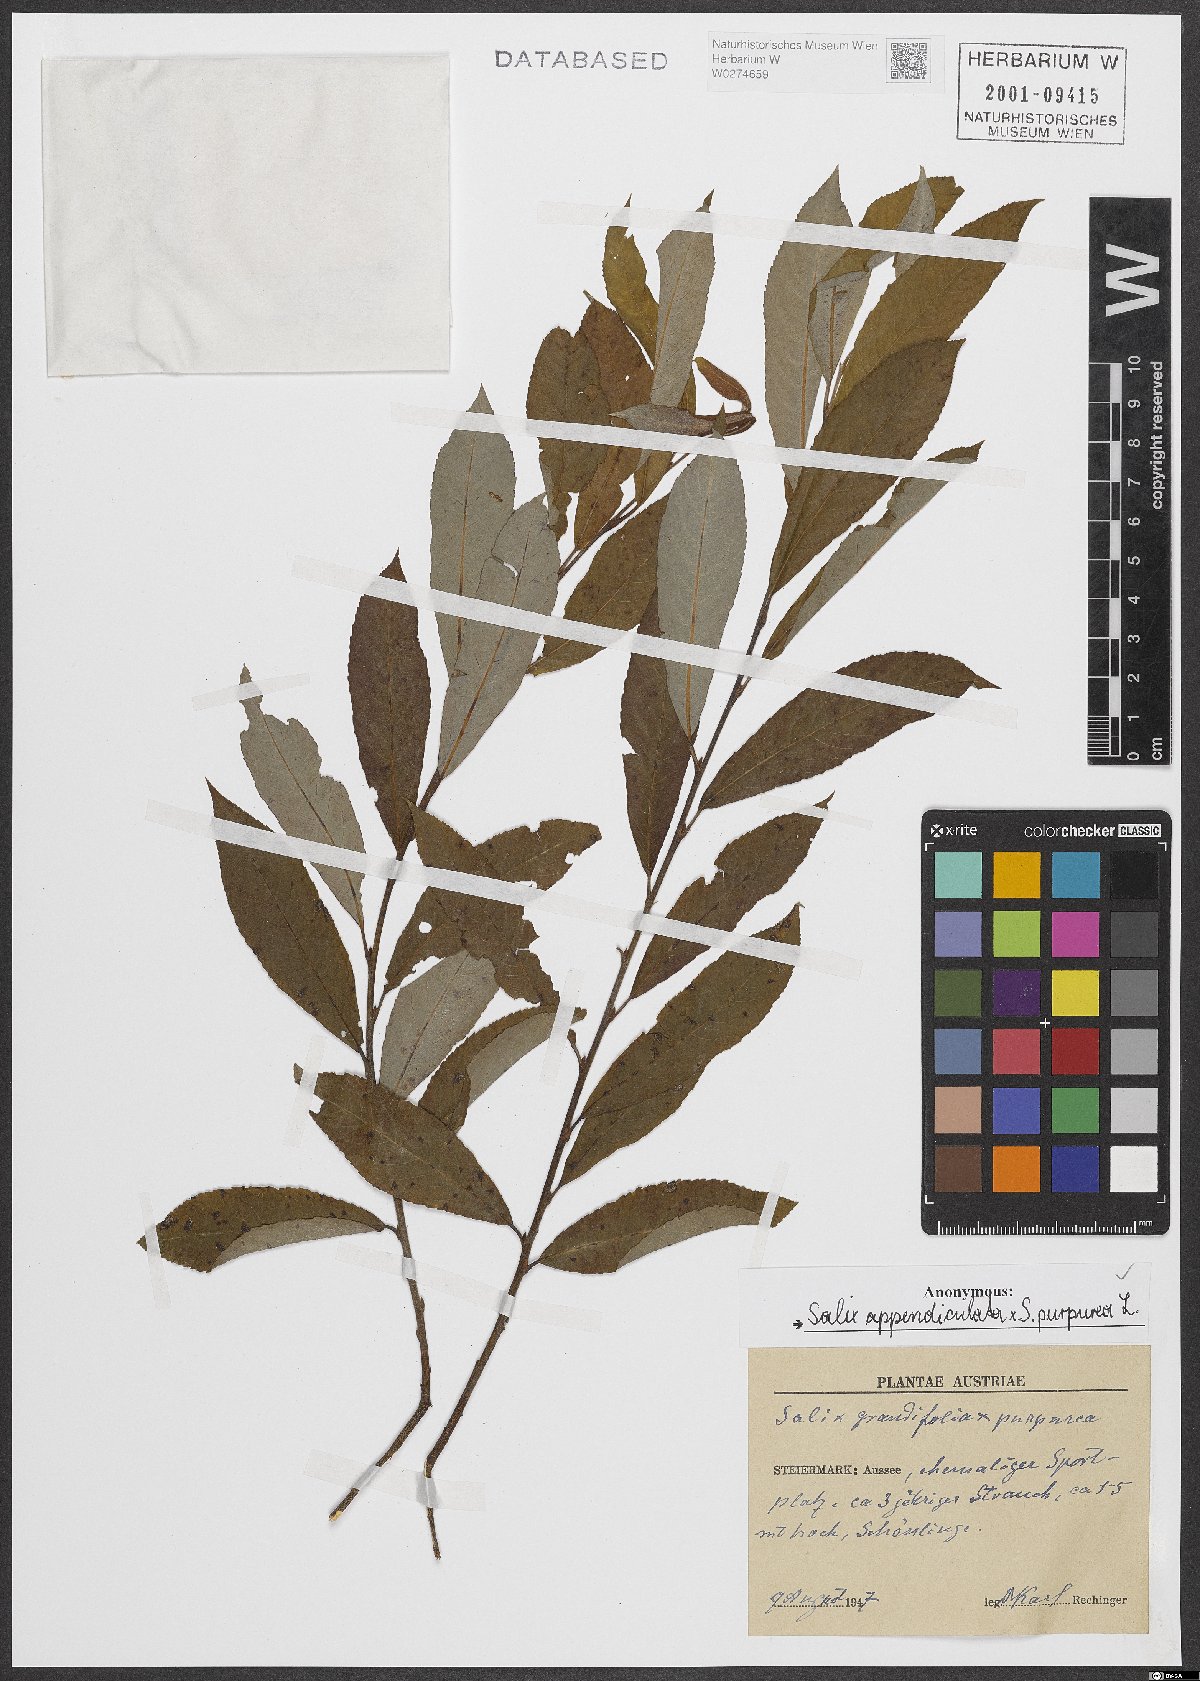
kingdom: Plantae
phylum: Tracheophyta
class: Magnoliopsida
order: Malpighiales
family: Salicaceae
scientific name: Salicaceae
